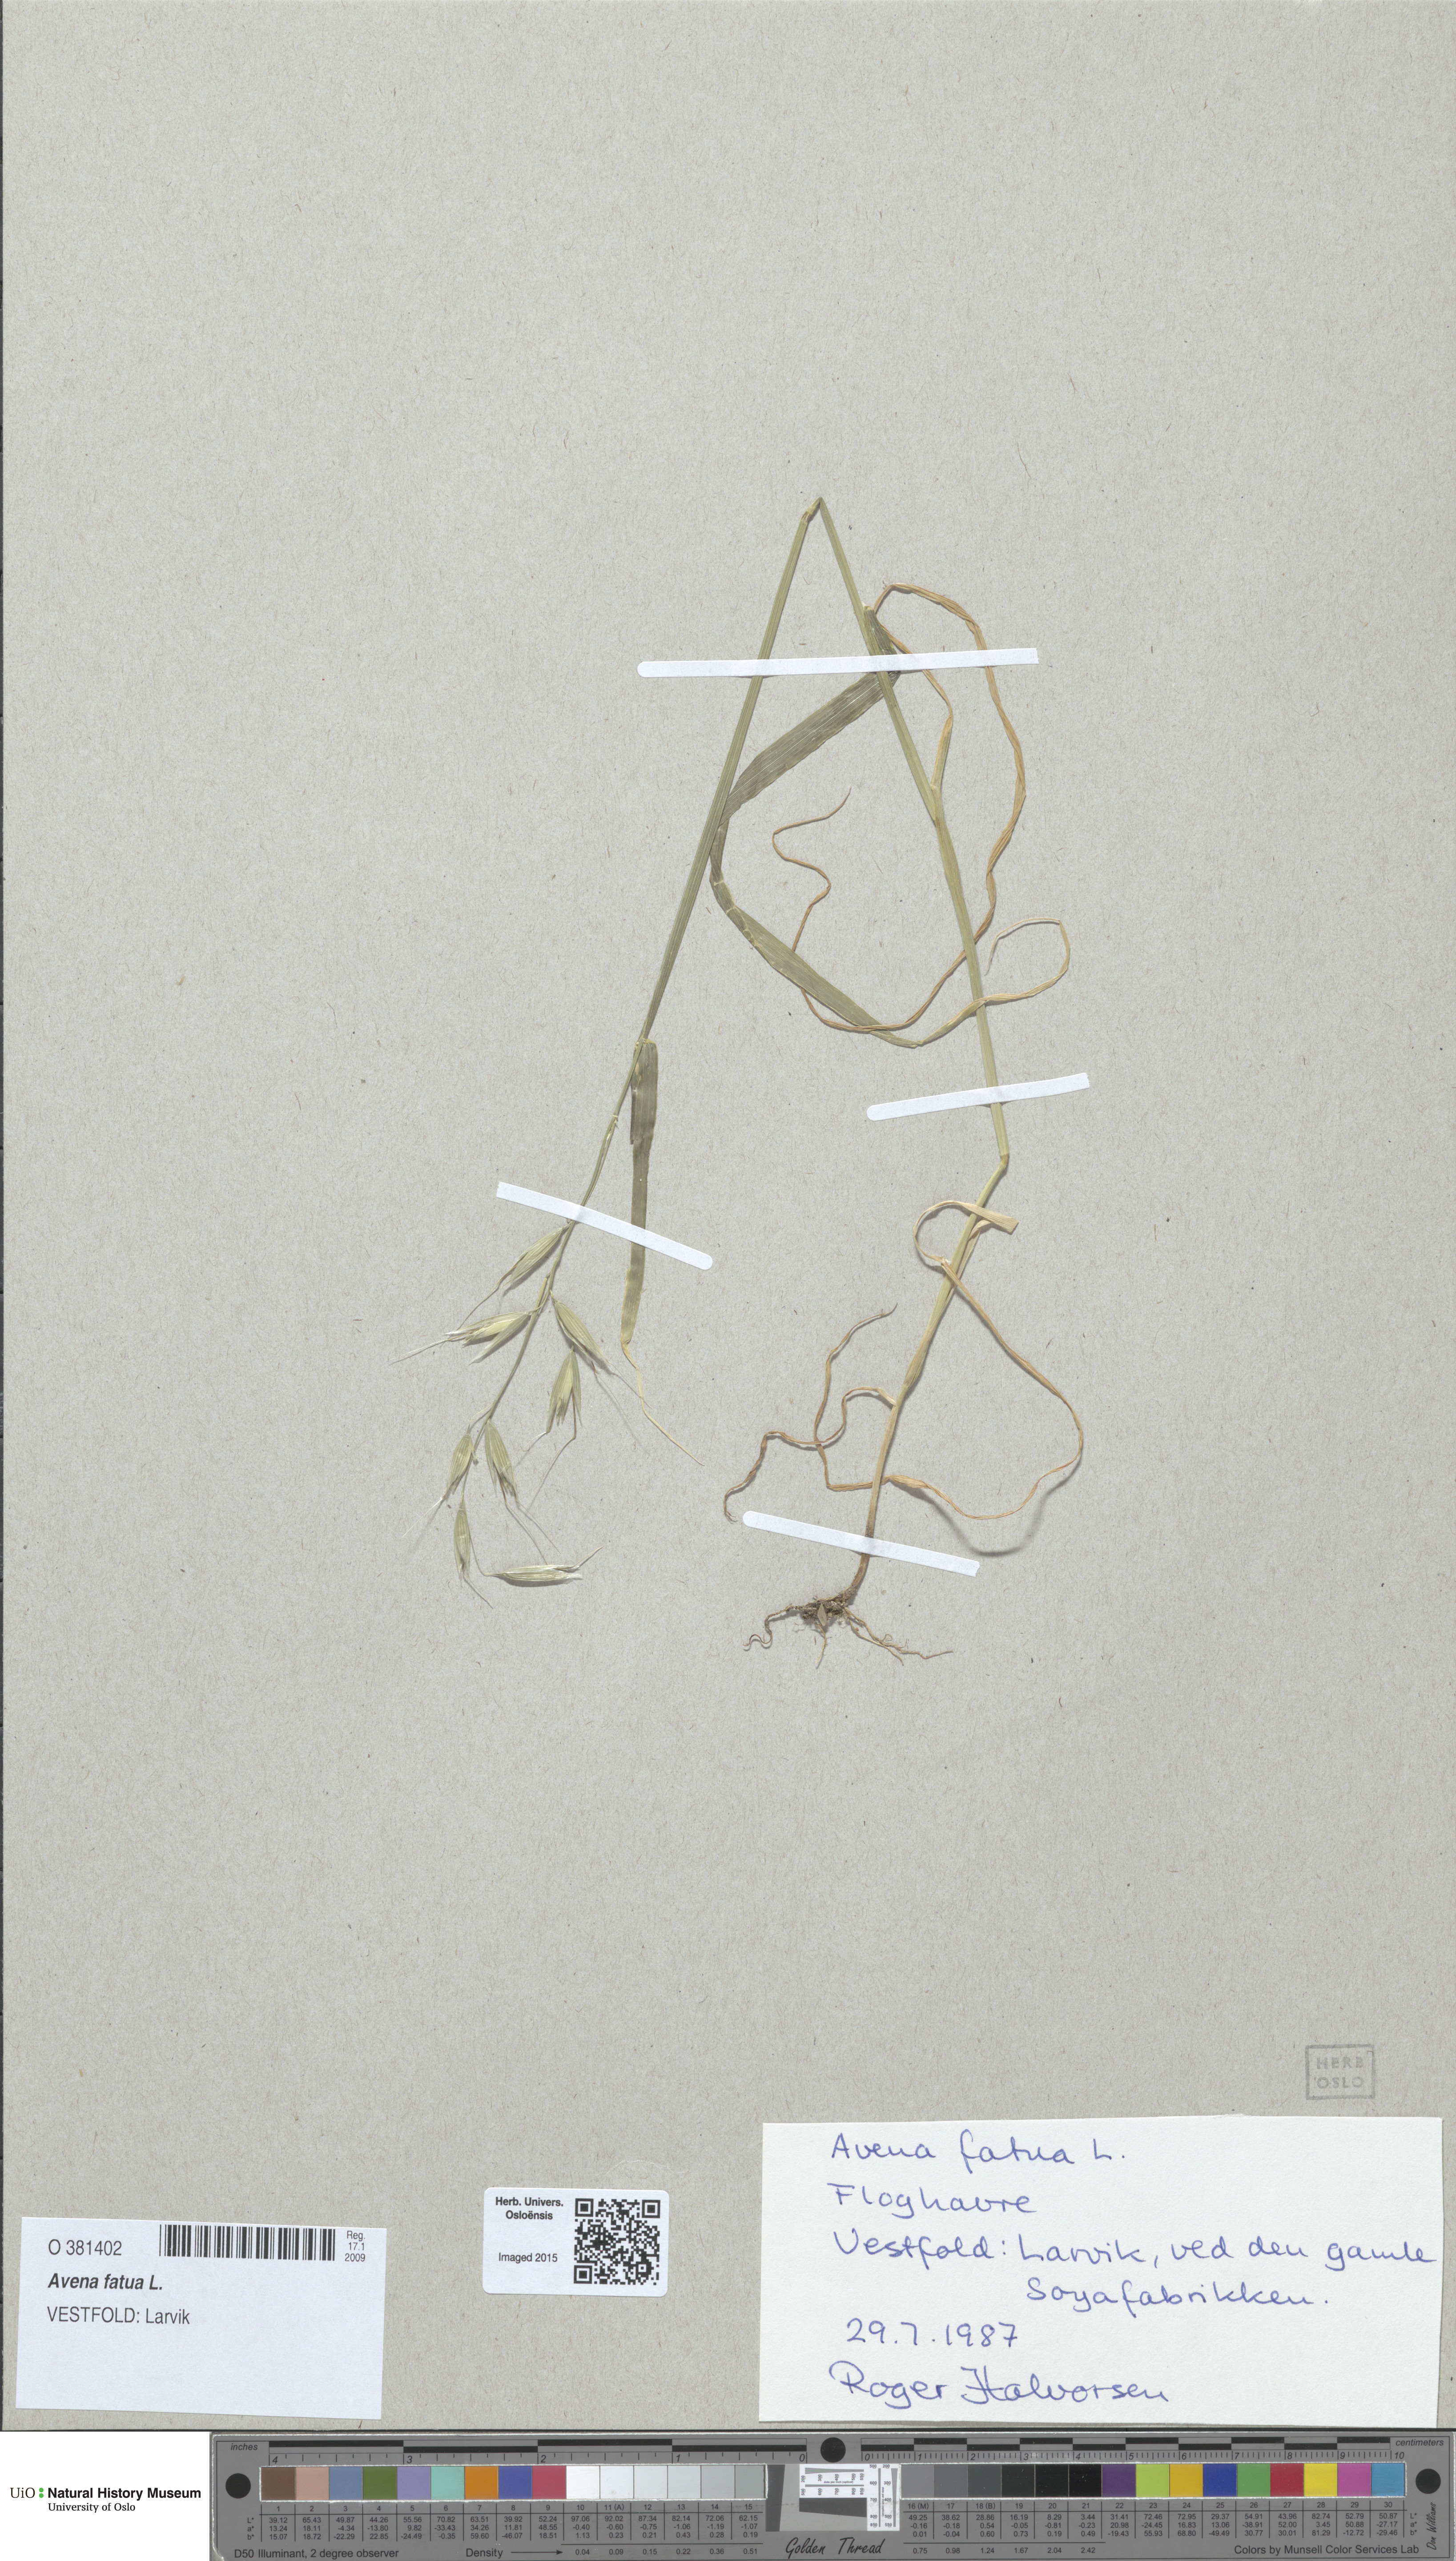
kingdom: Plantae
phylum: Tracheophyta
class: Liliopsida
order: Poales
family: Poaceae
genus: Avena
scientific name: Avena fatua
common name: Wild oat
